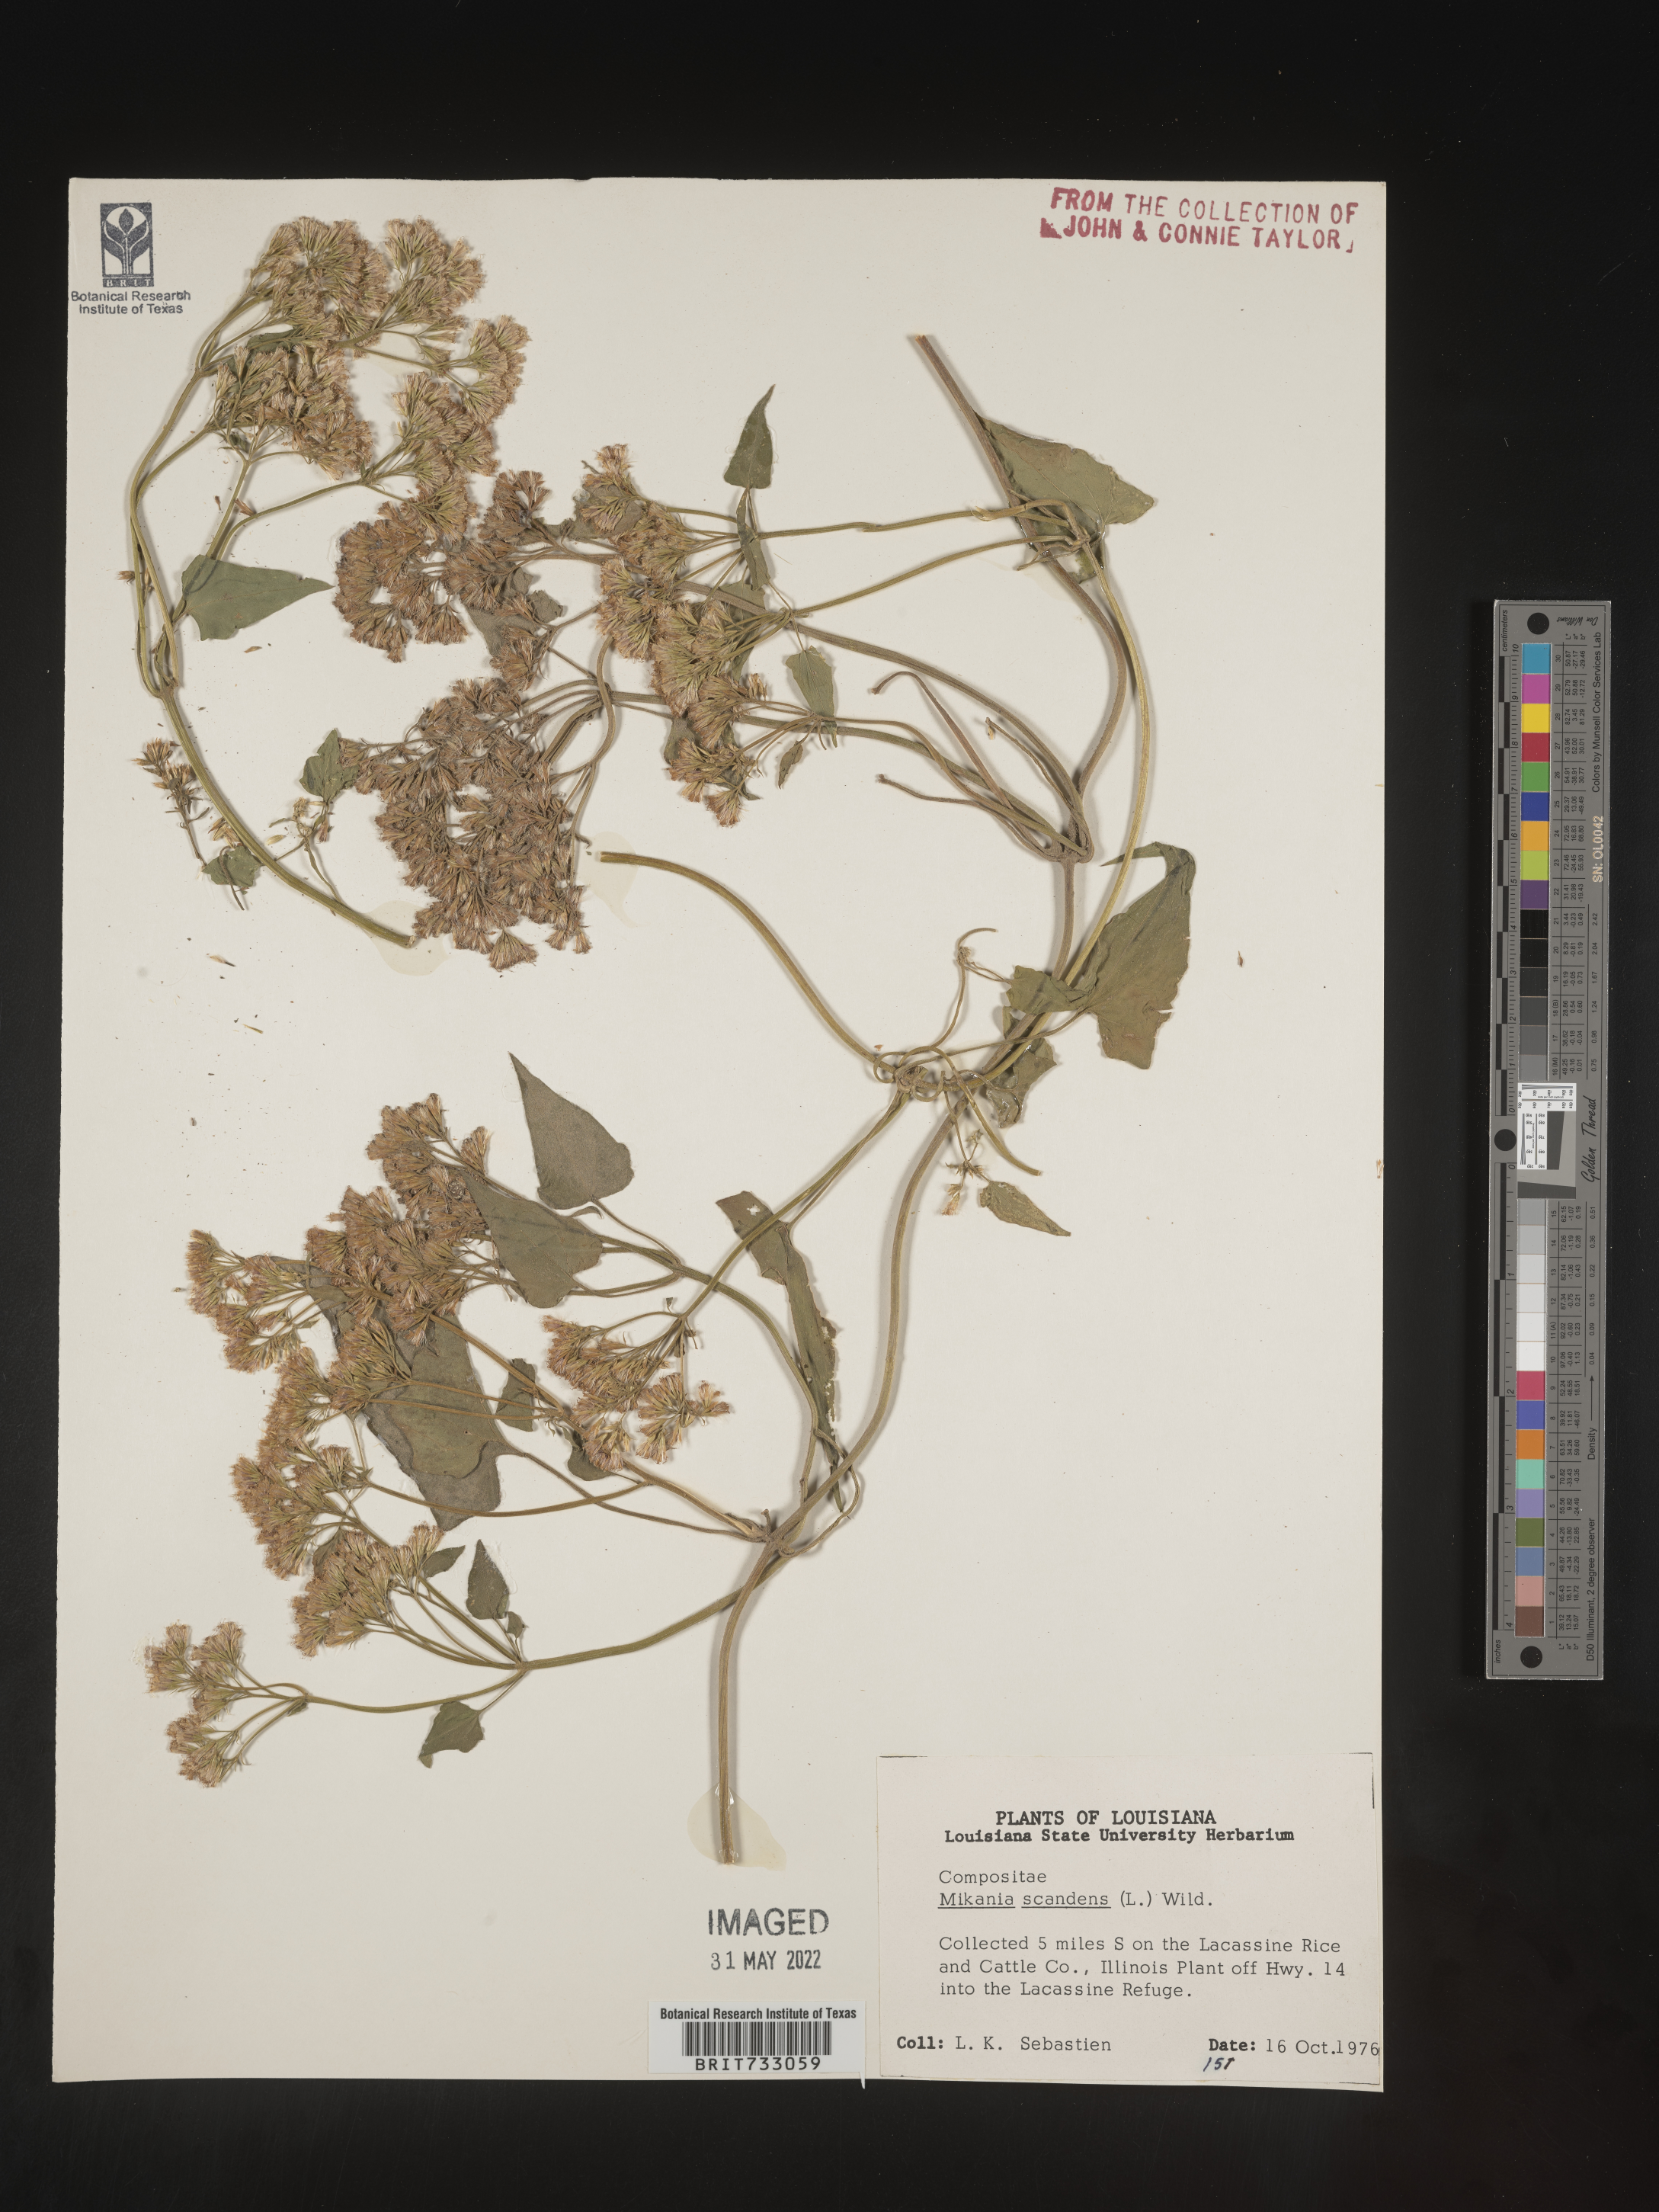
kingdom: Plantae
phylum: Tracheophyta
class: Magnoliopsida
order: Asterales
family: Asteraceae
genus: Mikania
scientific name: Mikania scandens
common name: Climbing hempvine
